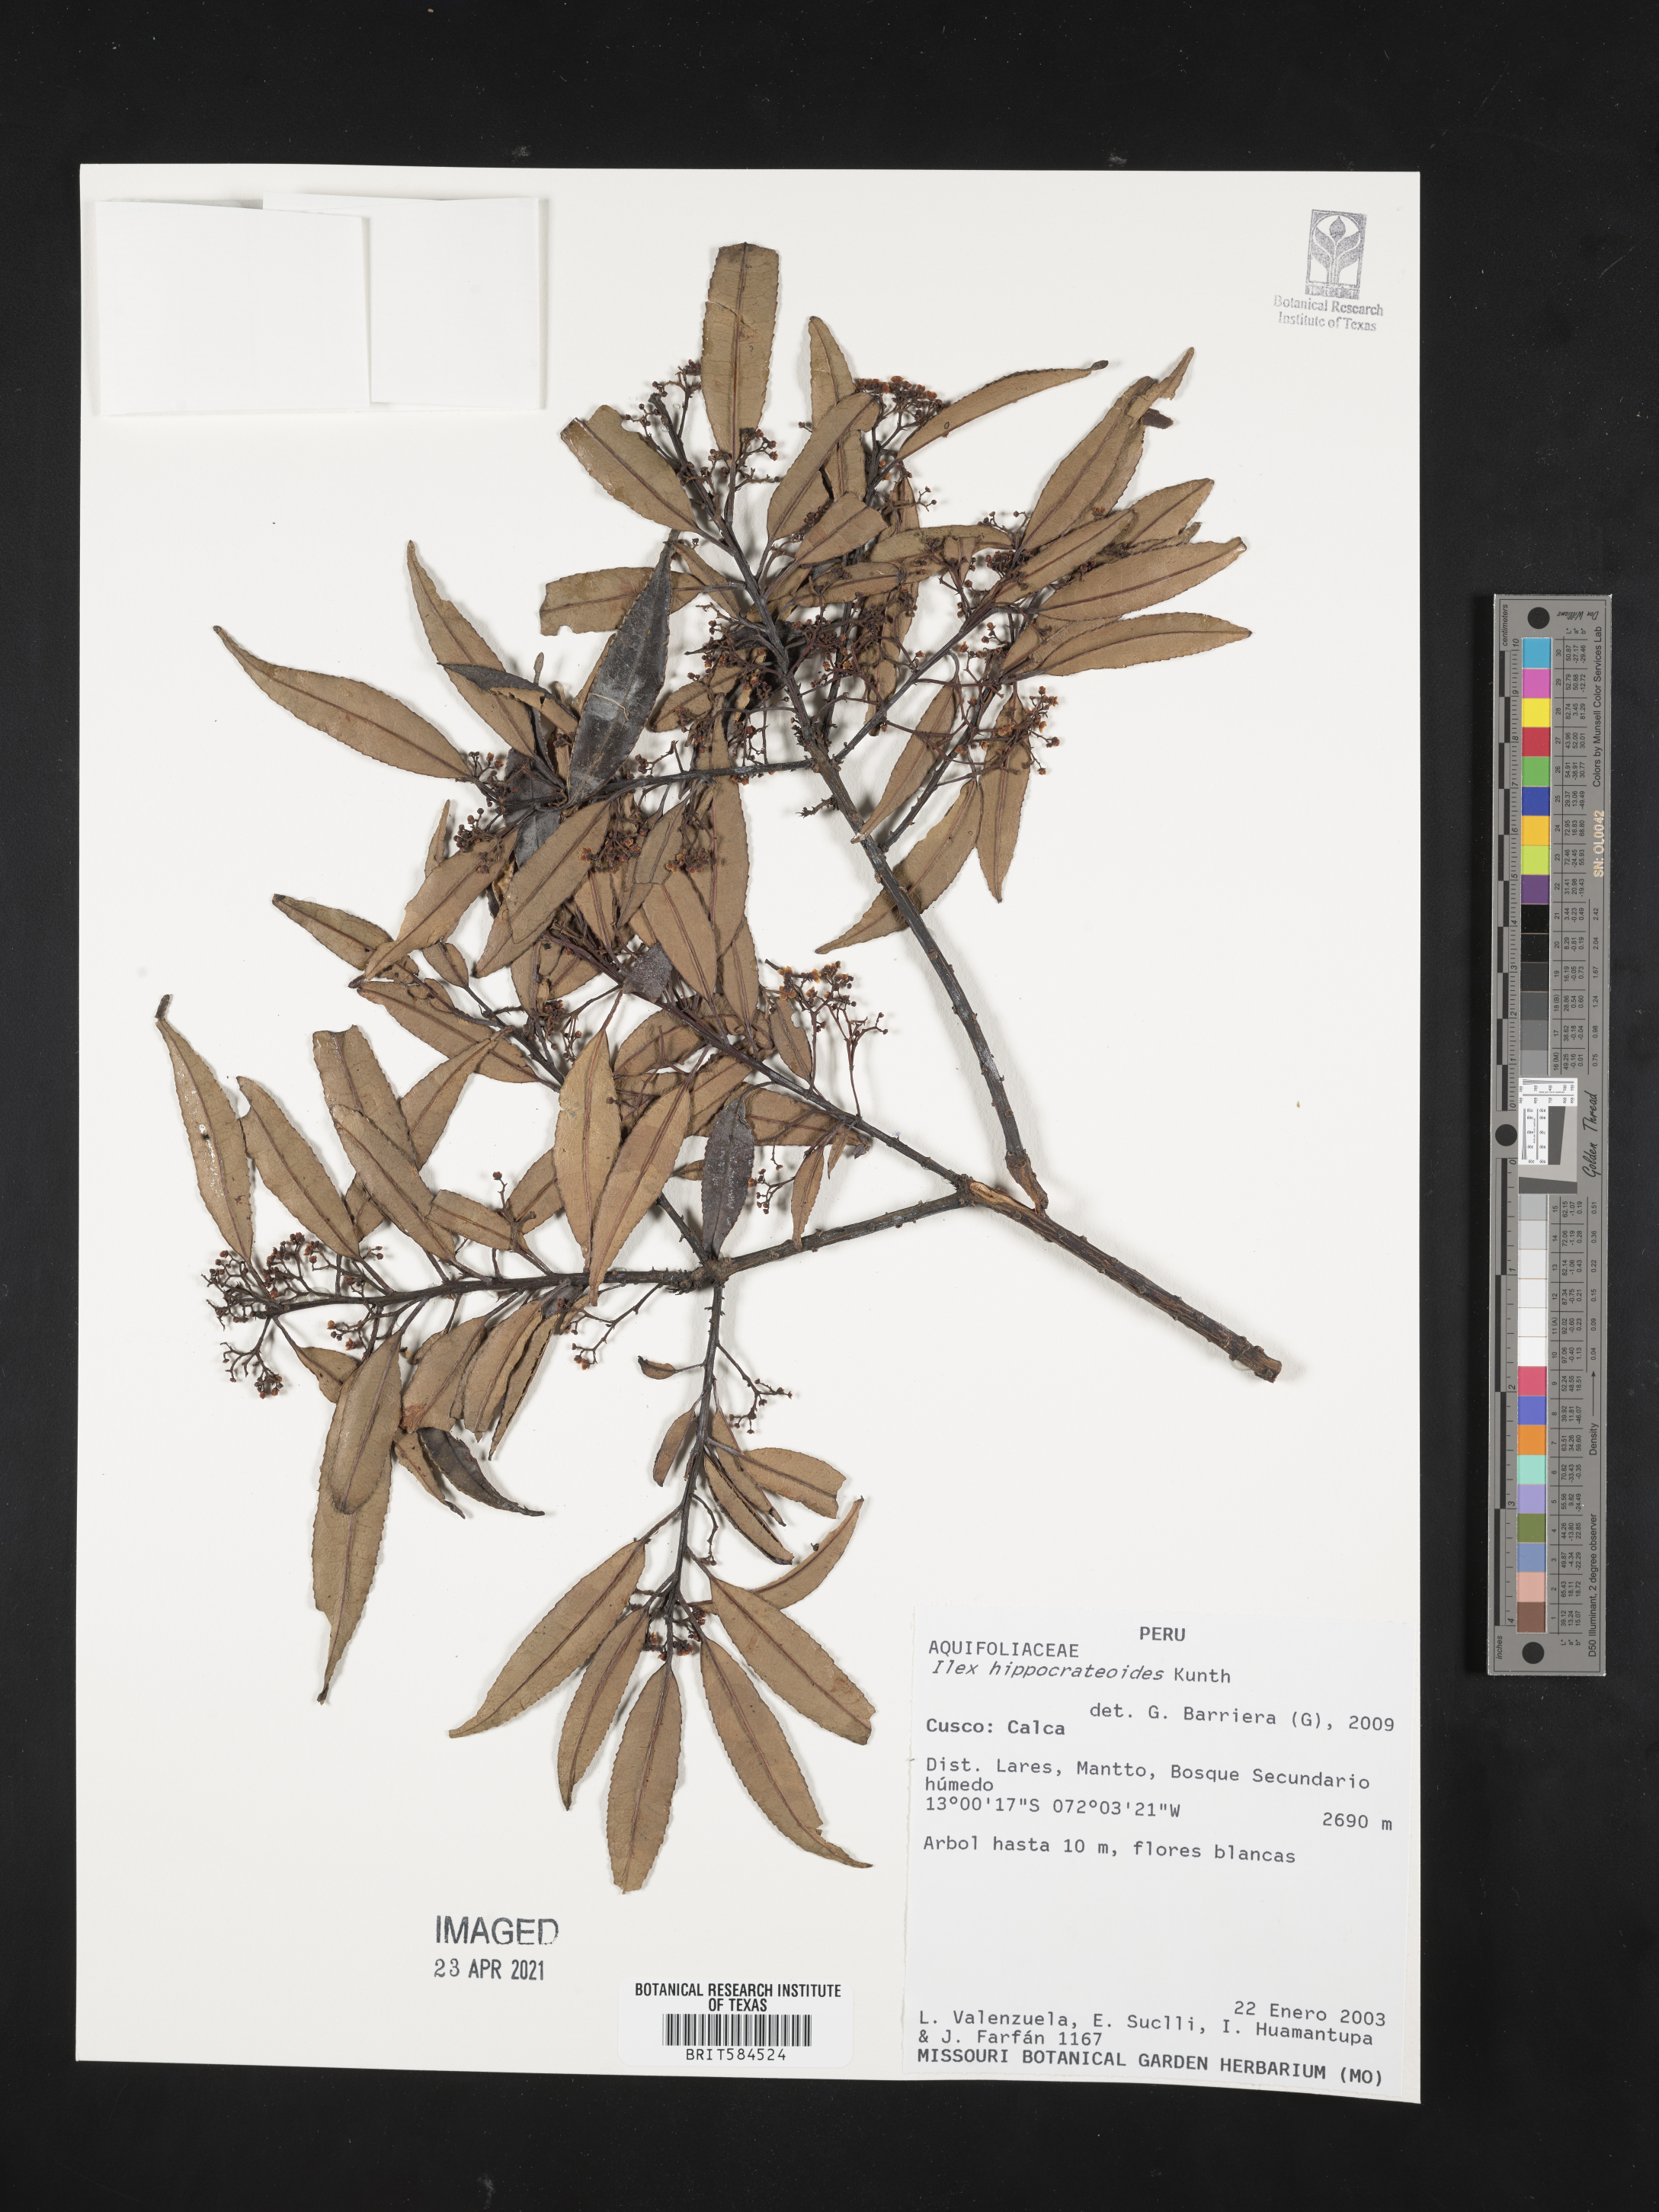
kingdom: Plantae
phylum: Tracheophyta
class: Magnoliopsida
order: Aquifoliales
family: Aquifoliaceae
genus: Ilex
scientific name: Ilex hippocrateoides
